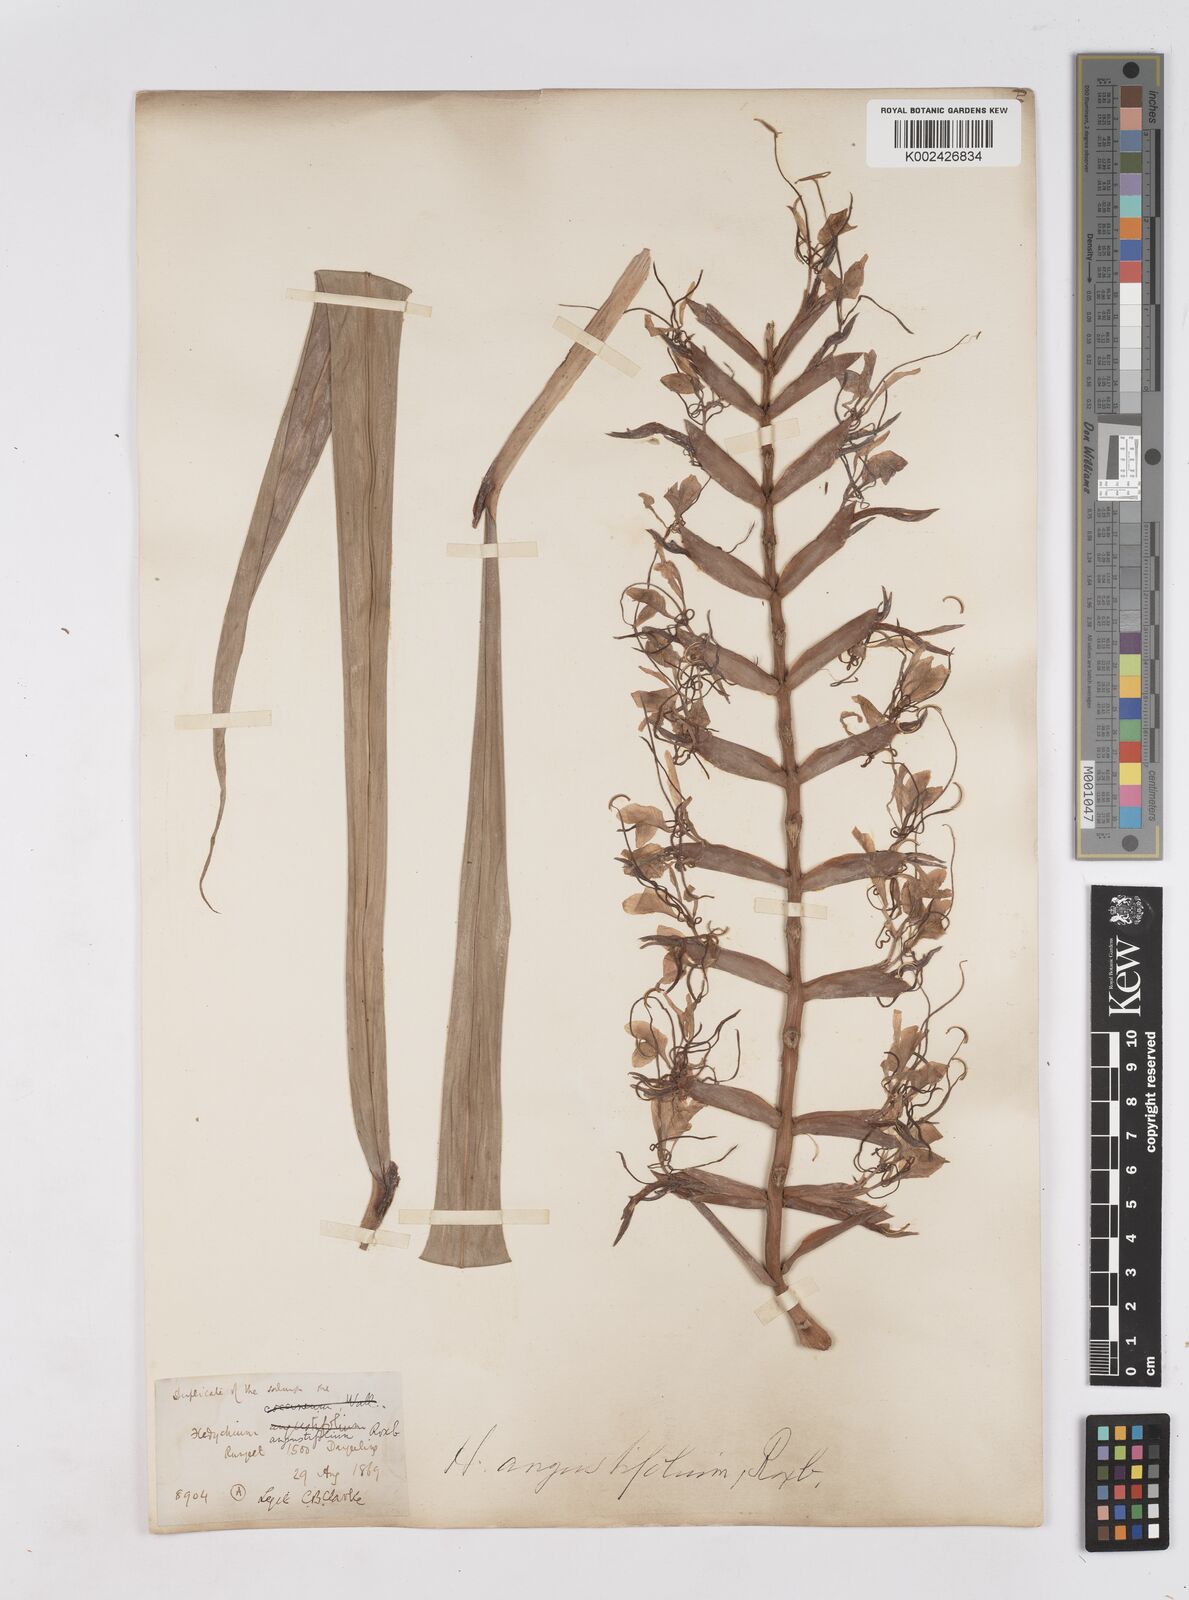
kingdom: Plantae
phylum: Tracheophyta
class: Liliopsida
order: Zingiberales
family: Zingiberaceae
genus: Hedychium
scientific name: Hedychium coccineum
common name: Red ginger-lily
